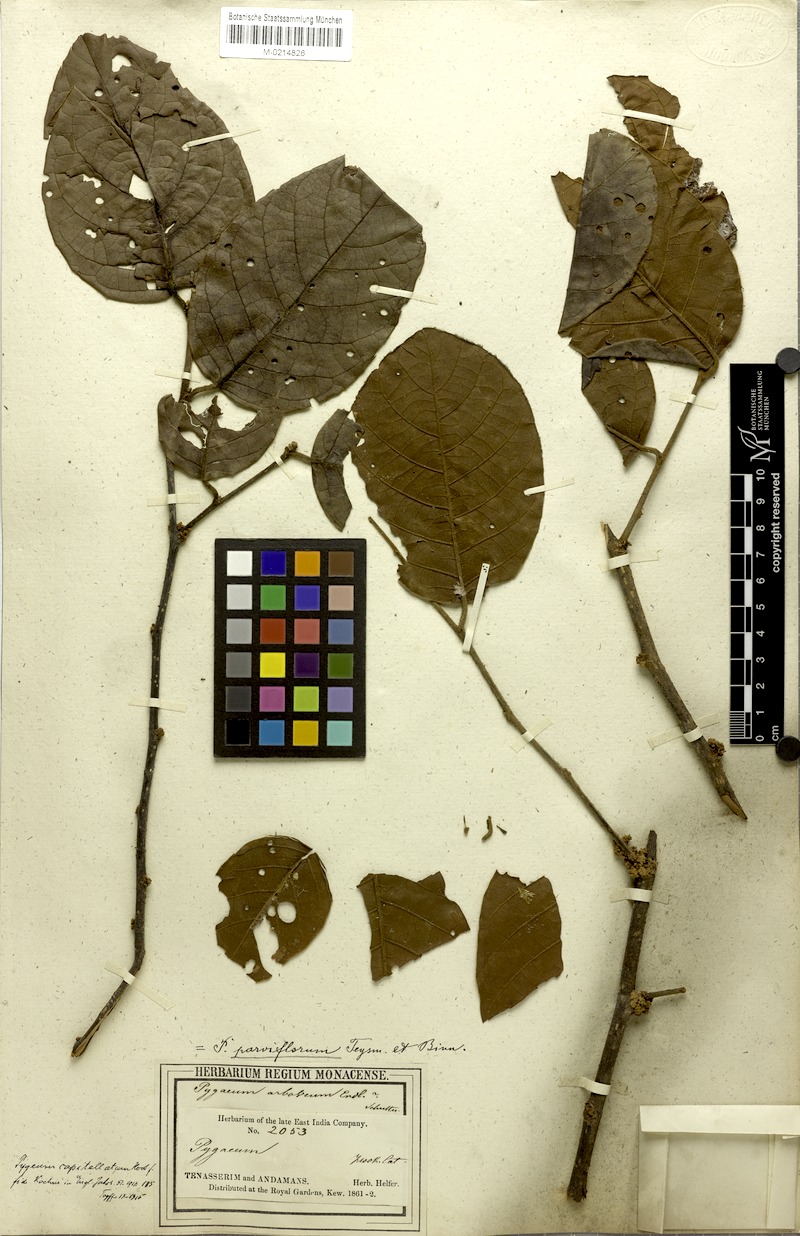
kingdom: Plantae
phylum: Tracheophyta
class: Magnoliopsida
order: Rosales
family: Rosaceae
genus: Prunus
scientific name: Prunus arborea
